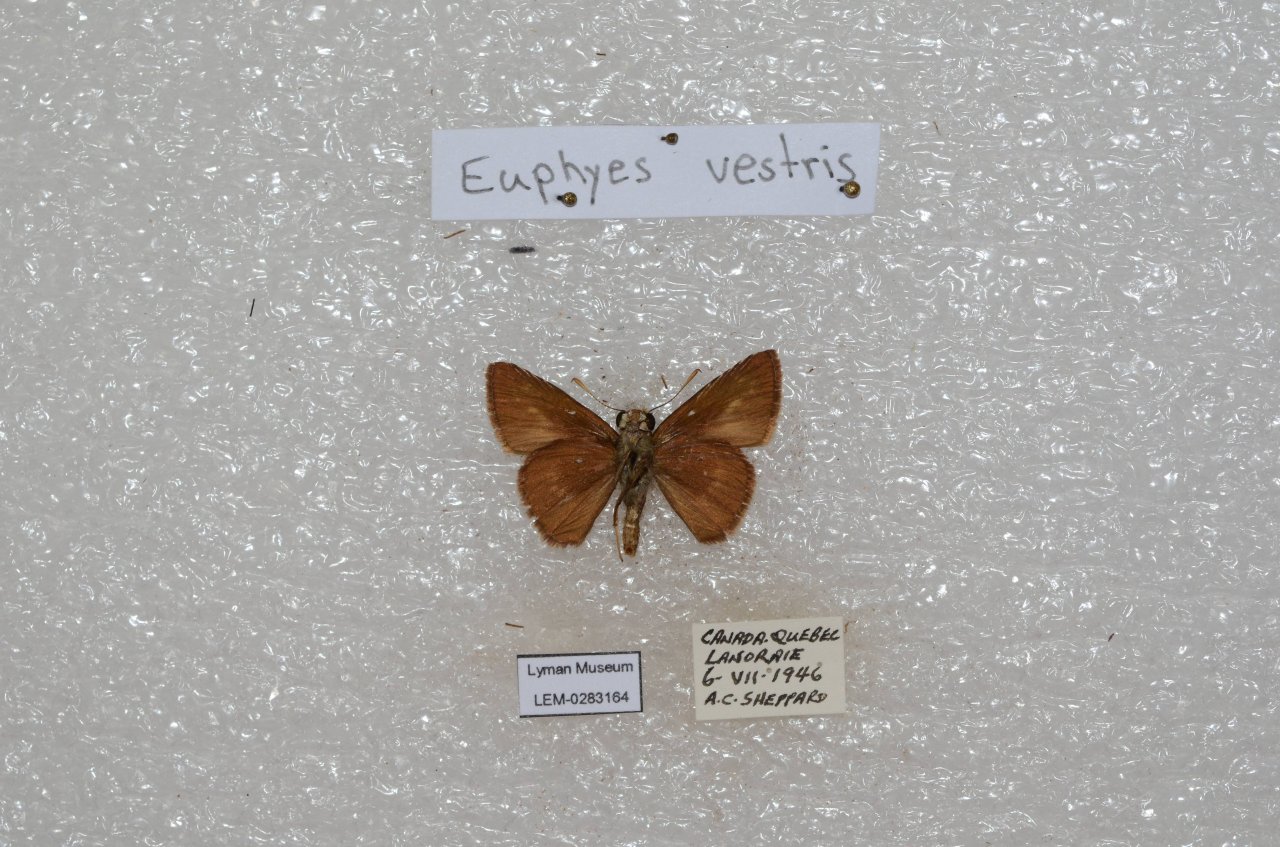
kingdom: Animalia
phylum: Arthropoda
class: Insecta
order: Lepidoptera
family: Hesperiidae
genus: Euphyes
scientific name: Euphyes vestris
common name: Dun Skipper
